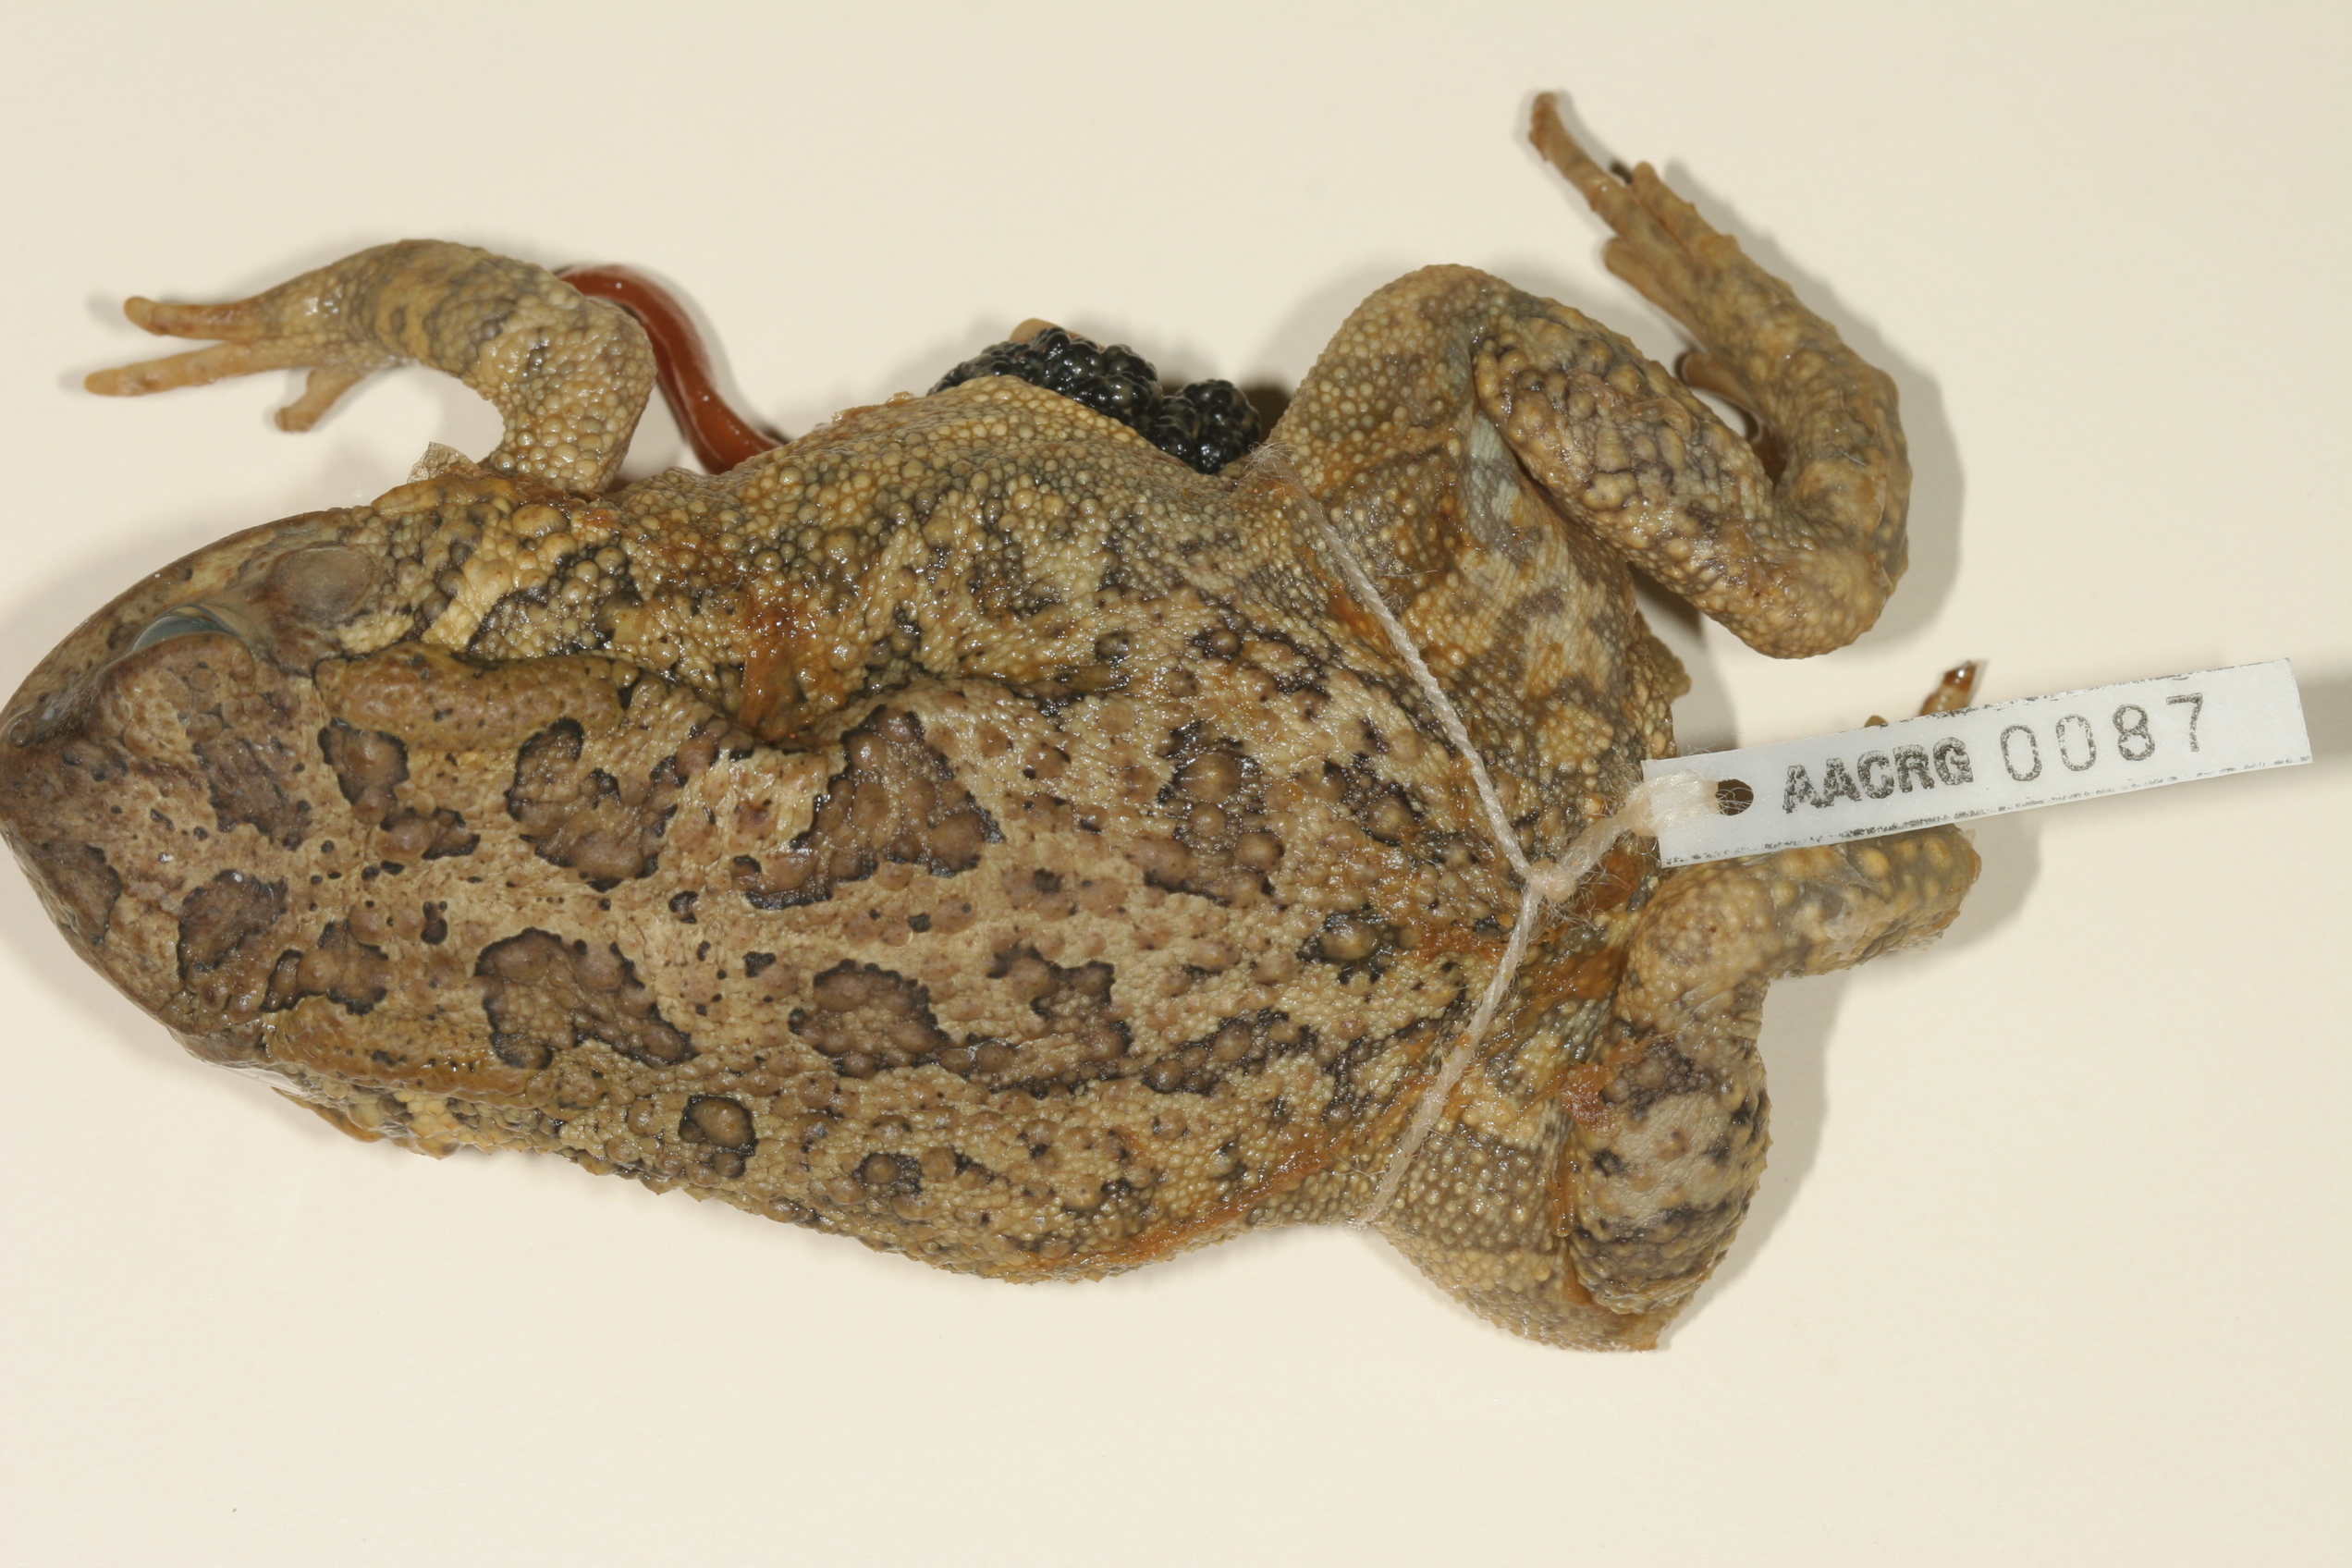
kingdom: Animalia
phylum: Chordata
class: Amphibia
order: Anura
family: Bufonidae
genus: Sclerophrys
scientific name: Sclerophrys poweri
